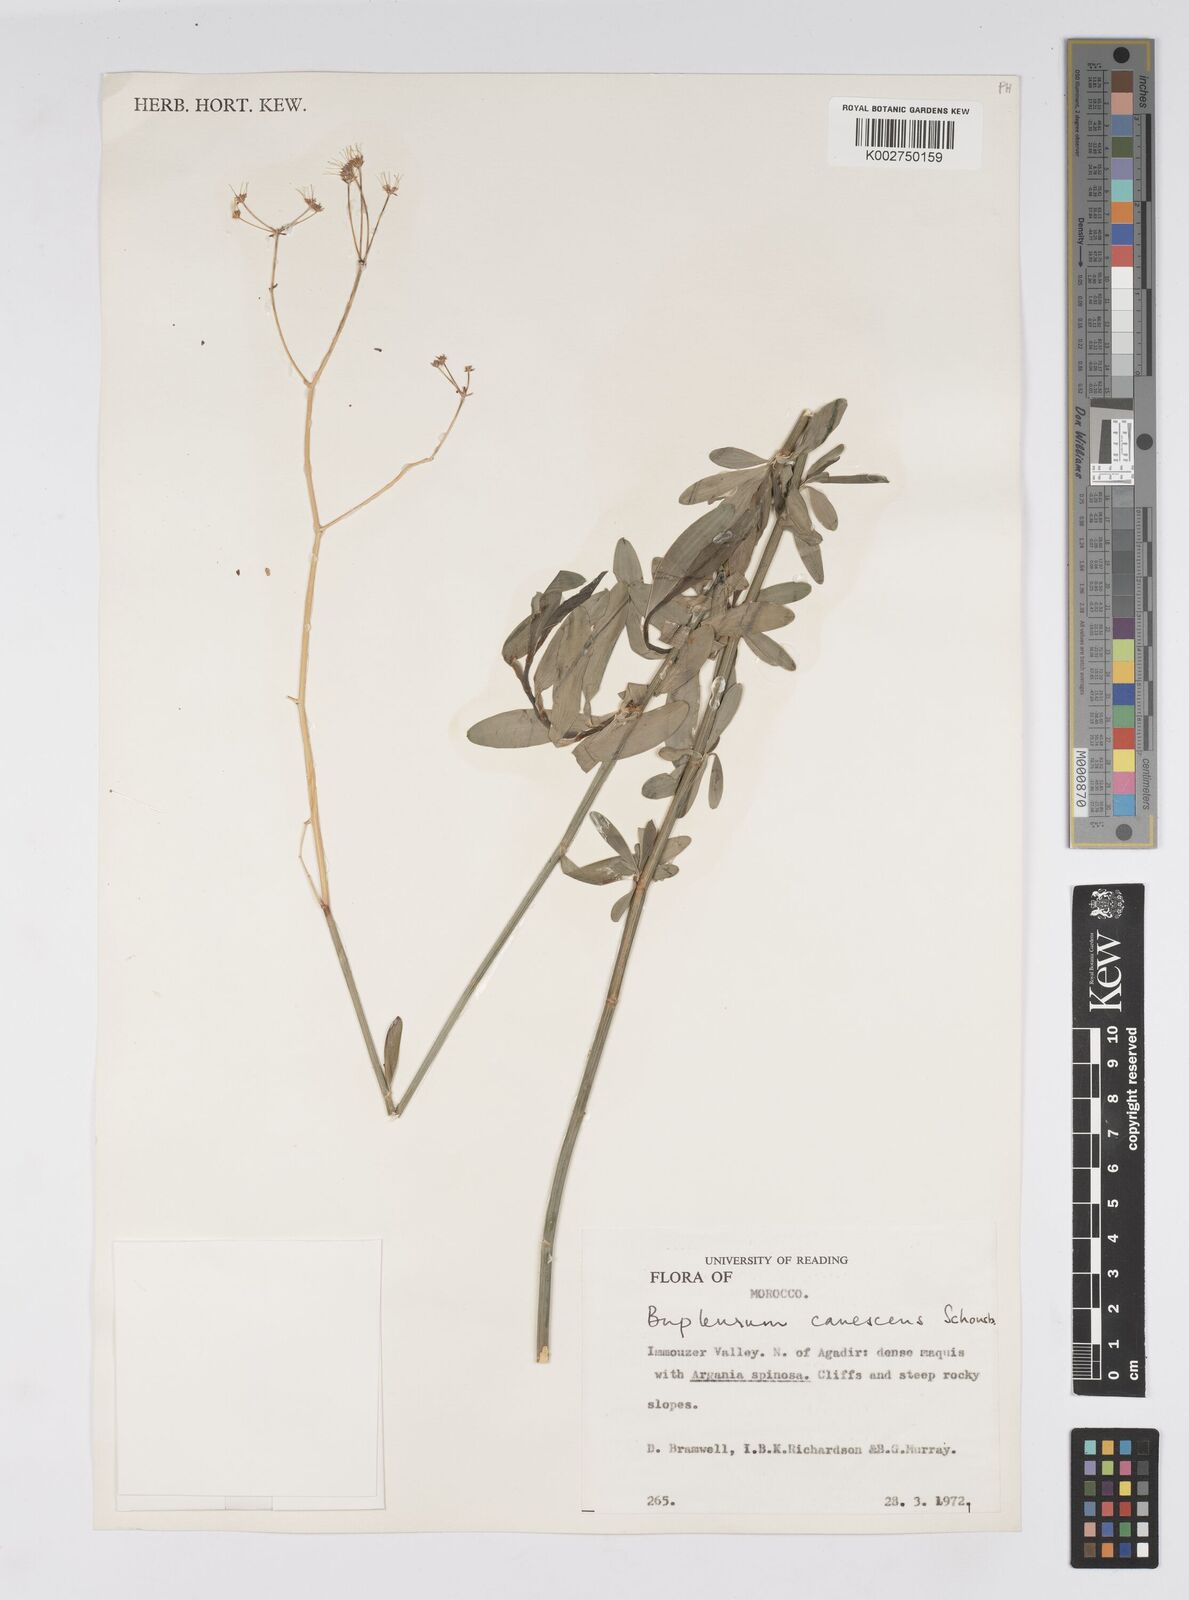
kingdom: Plantae
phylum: Tracheophyta
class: Magnoliopsida
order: Apiales
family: Apiaceae
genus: Bupleurum
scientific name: Bupleurum canescens
